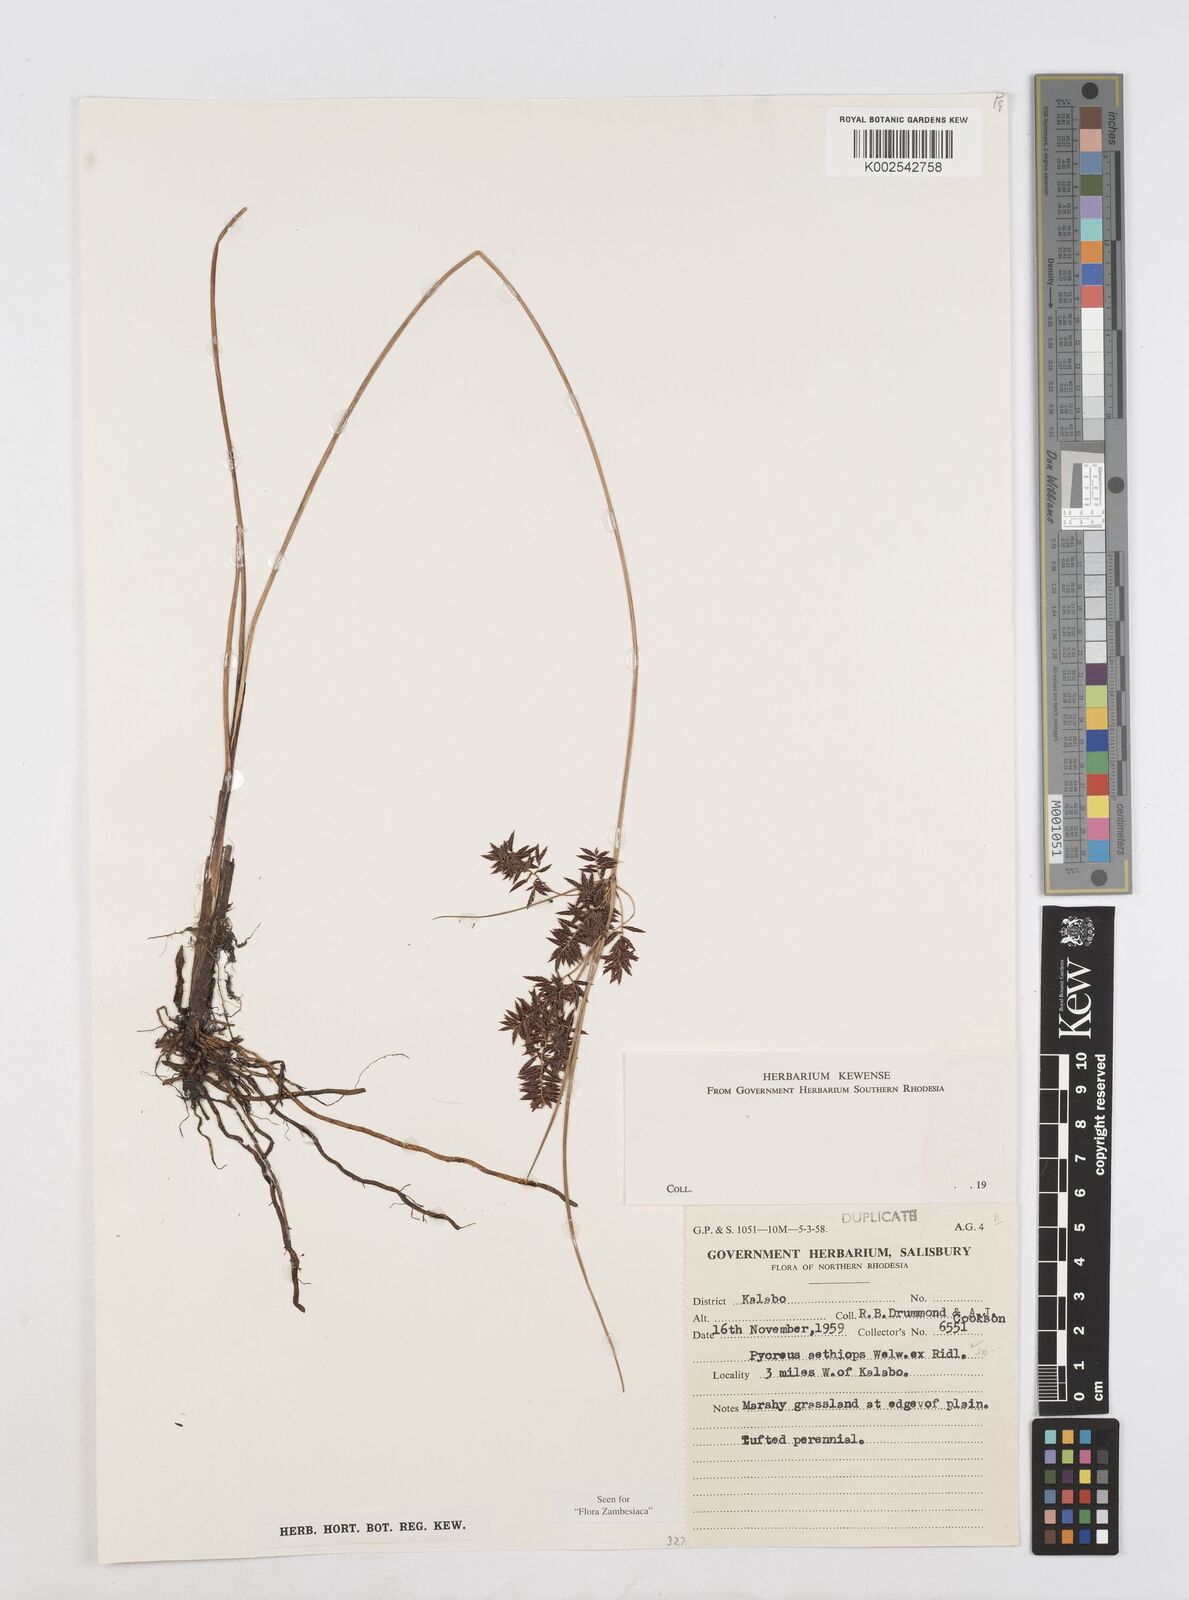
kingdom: Plantae
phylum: Tracheophyta
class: Liliopsida
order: Poales
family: Cyperaceae
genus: Cyperus
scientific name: Cyperus aethiops
